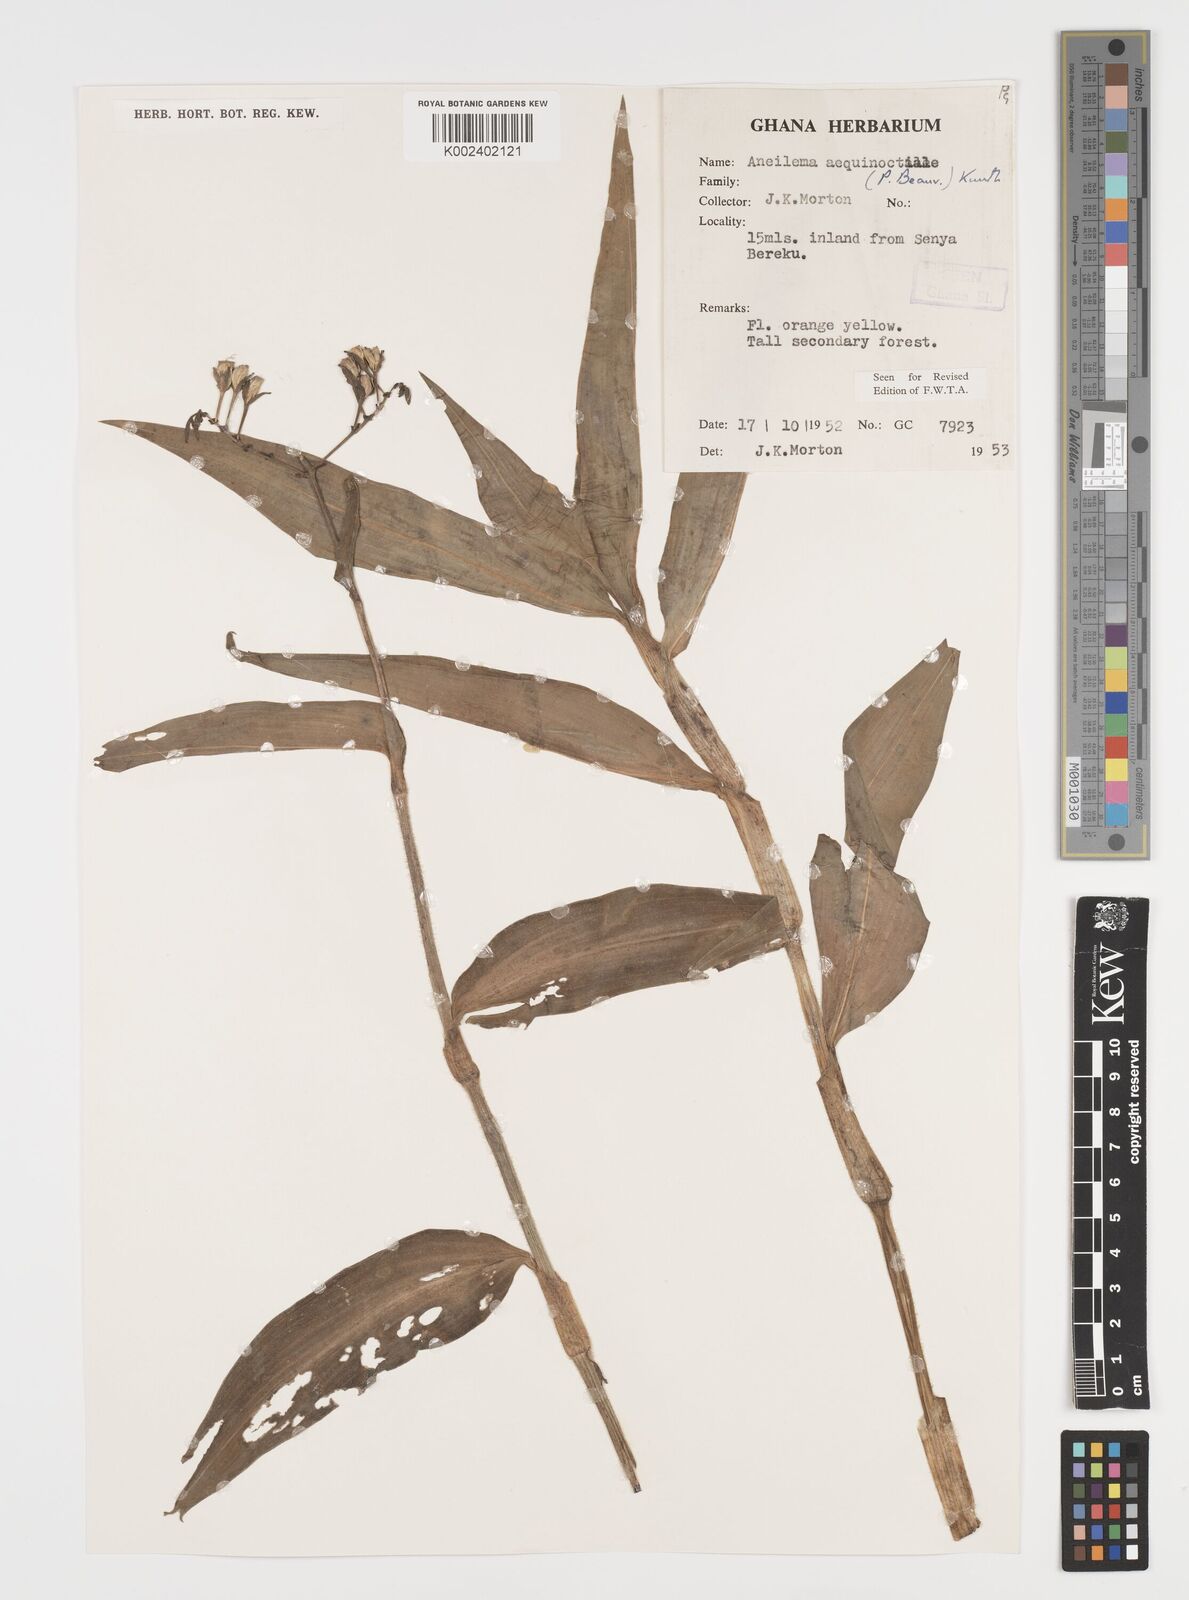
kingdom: Plantae
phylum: Tracheophyta
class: Liliopsida
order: Commelinales
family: Commelinaceae
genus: Aneilema
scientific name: Aneilema aequinoctiale
